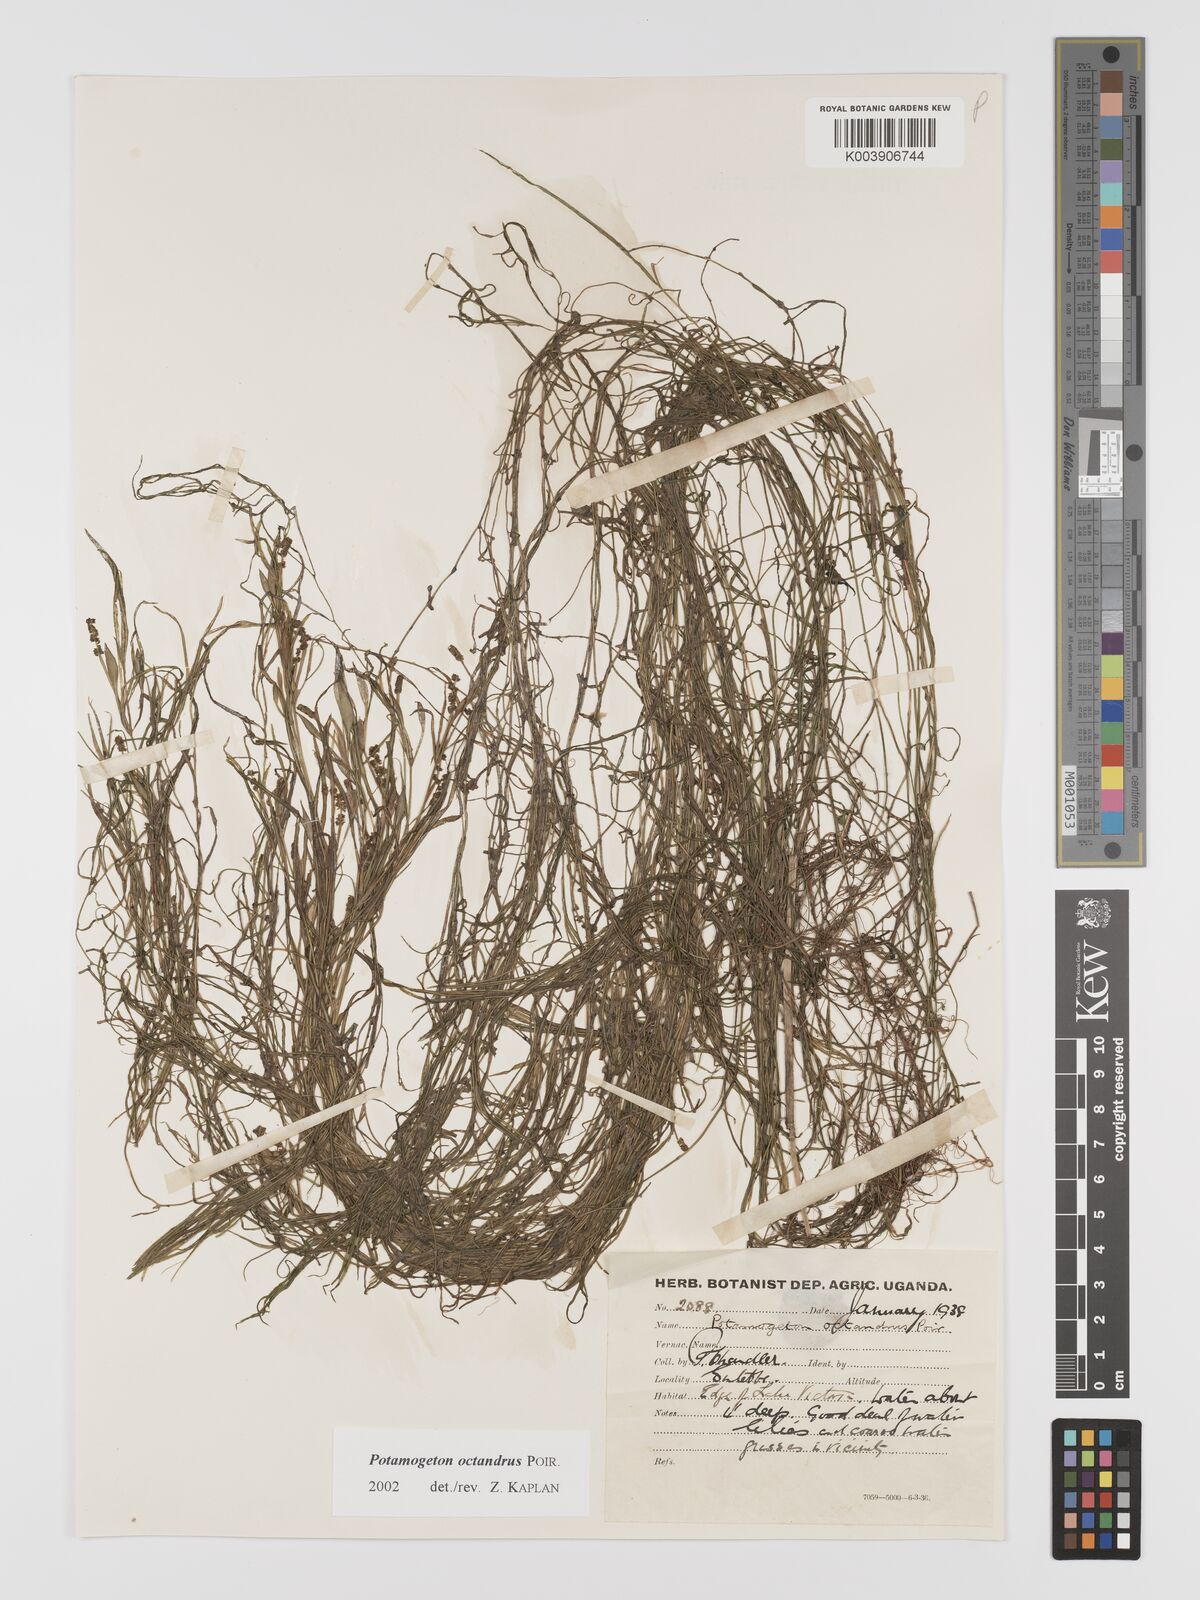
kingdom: Plantae
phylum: Tracheophyta
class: Liliopsida
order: Alismatales
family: Potamogetonaceae
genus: Potamogeton
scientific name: Potamogeton octandrus
